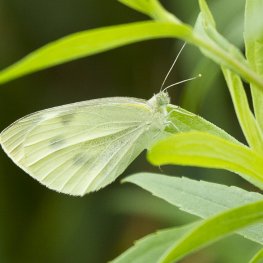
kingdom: Animalia
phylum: Arthropoda
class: Insecta
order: Lepidoptera
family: Pieridae
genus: Pieris
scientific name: Pieris rapae
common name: Cabbage White
